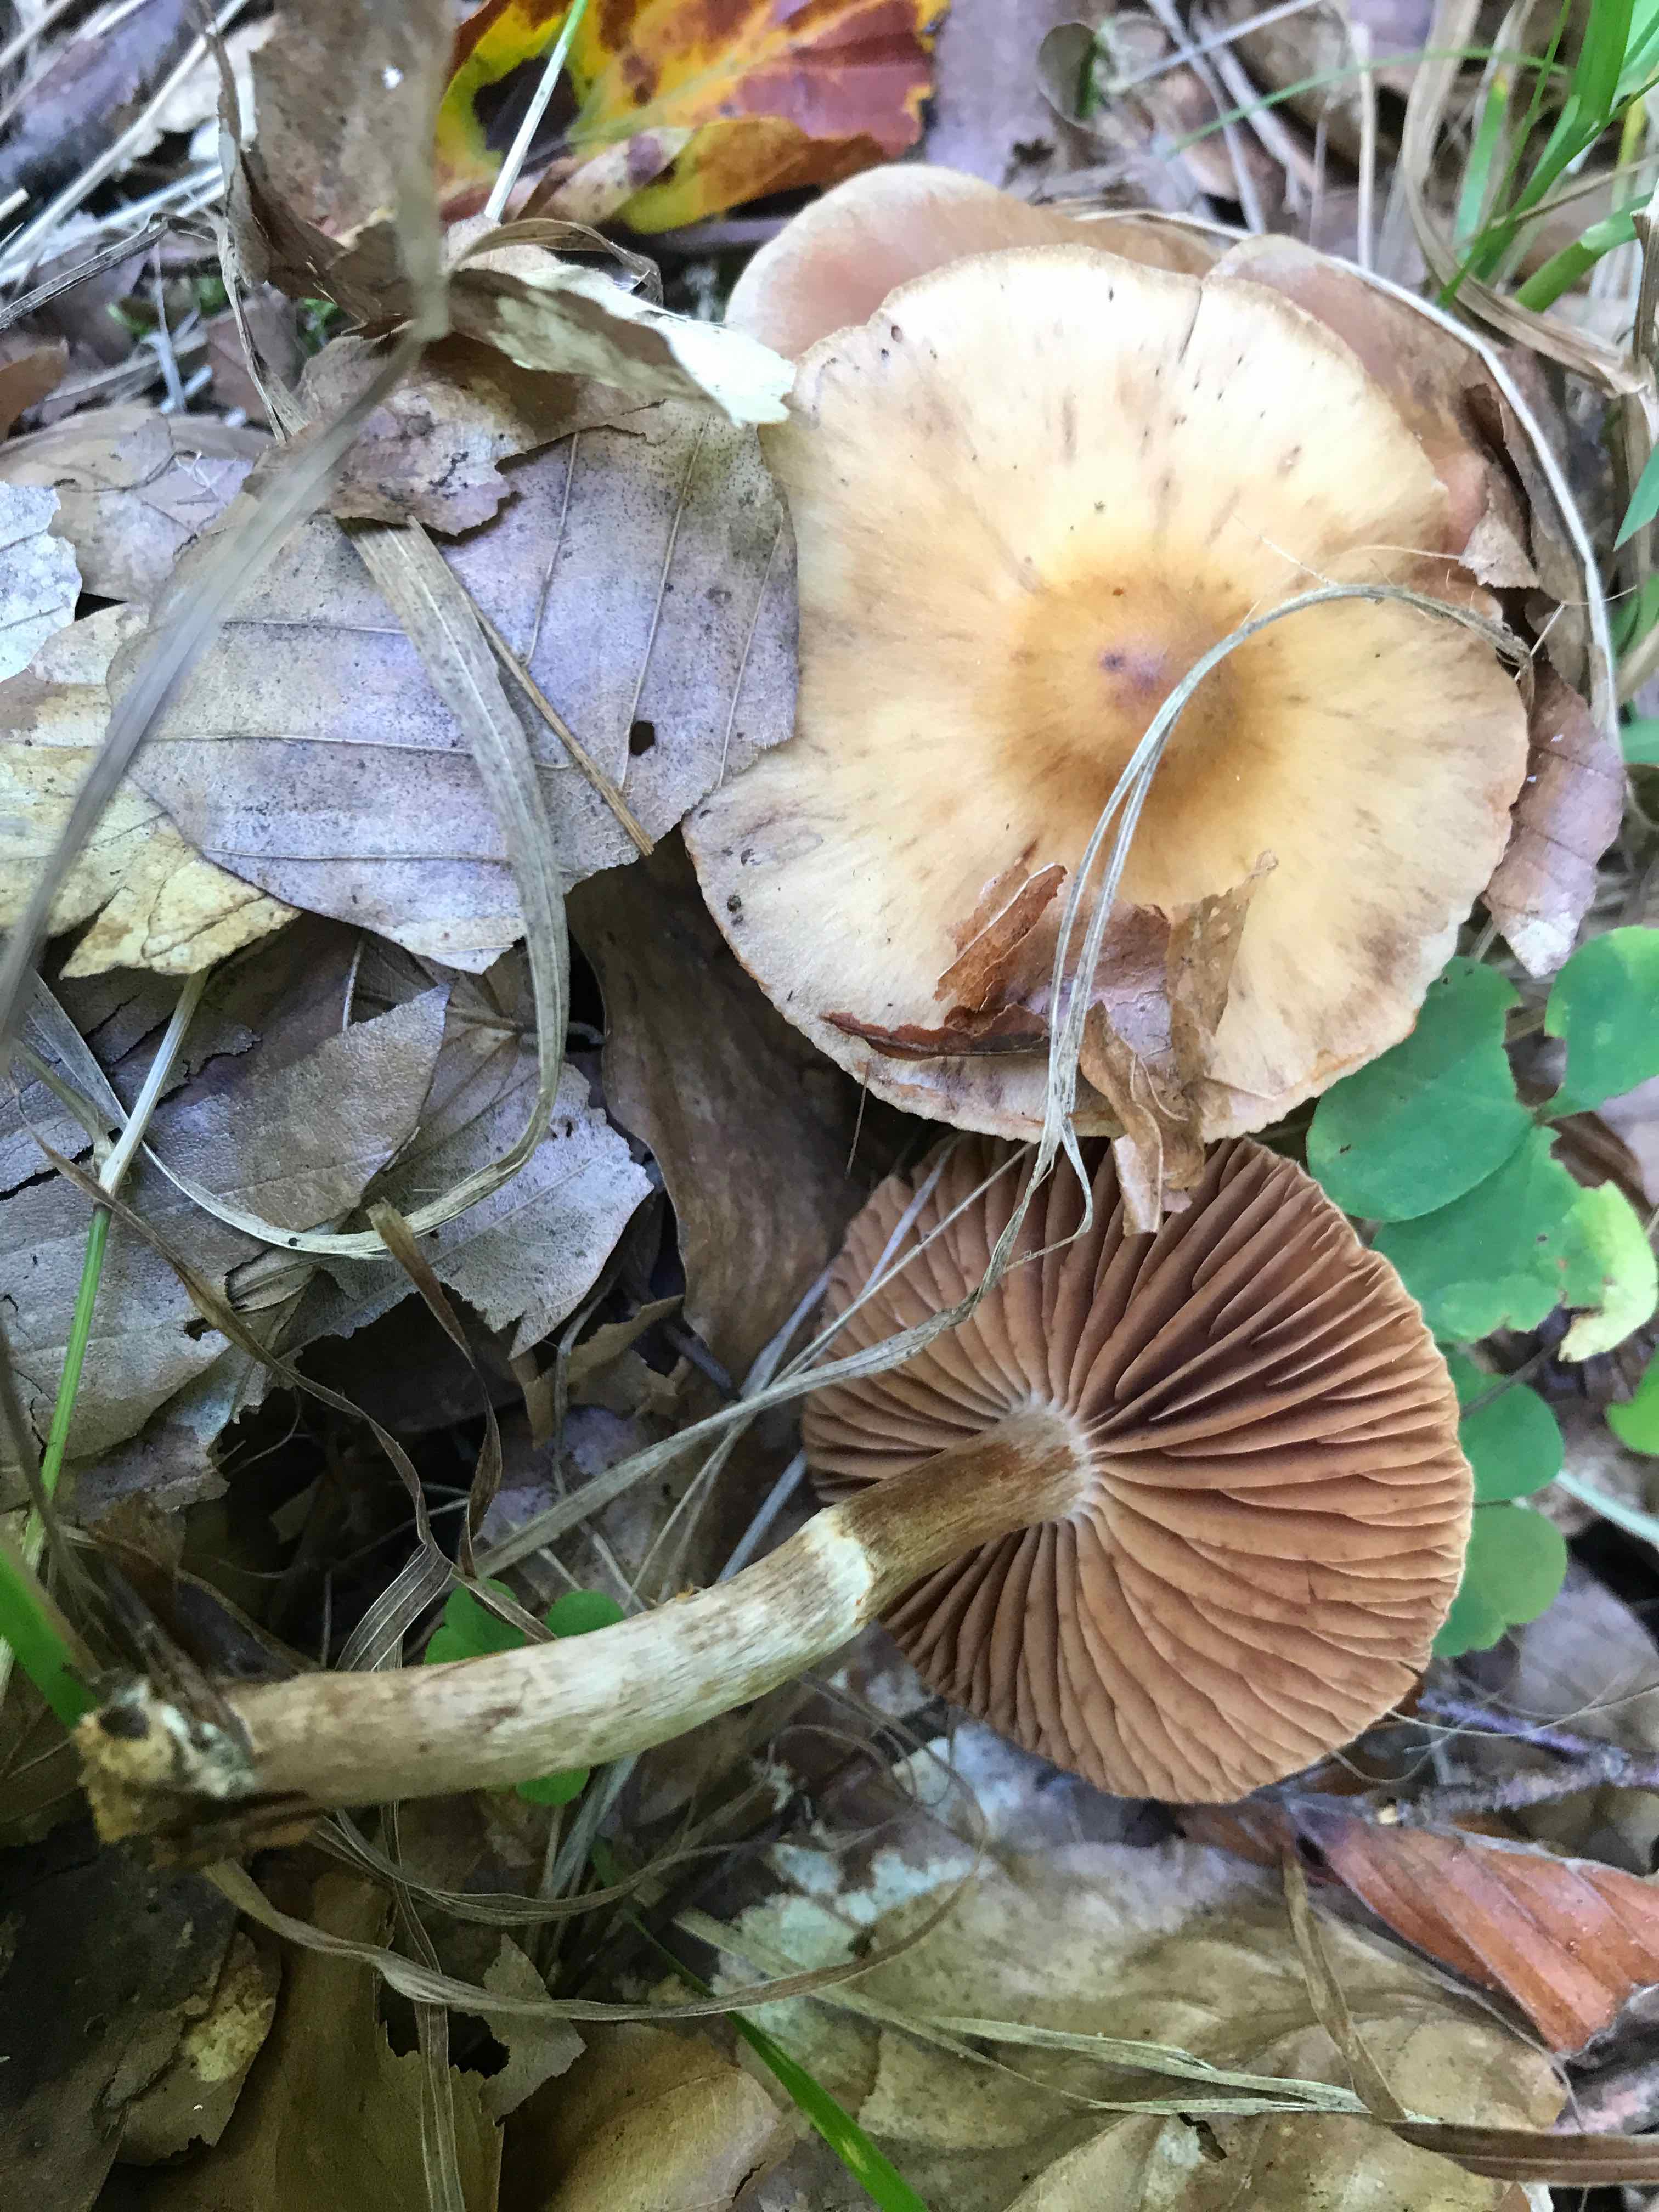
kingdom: Fungi
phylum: Basidiomycota
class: Agaricomycetes
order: Agaricales
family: Cortinariaceae
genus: Cortinarius
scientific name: Cortinarius hinnuleus
